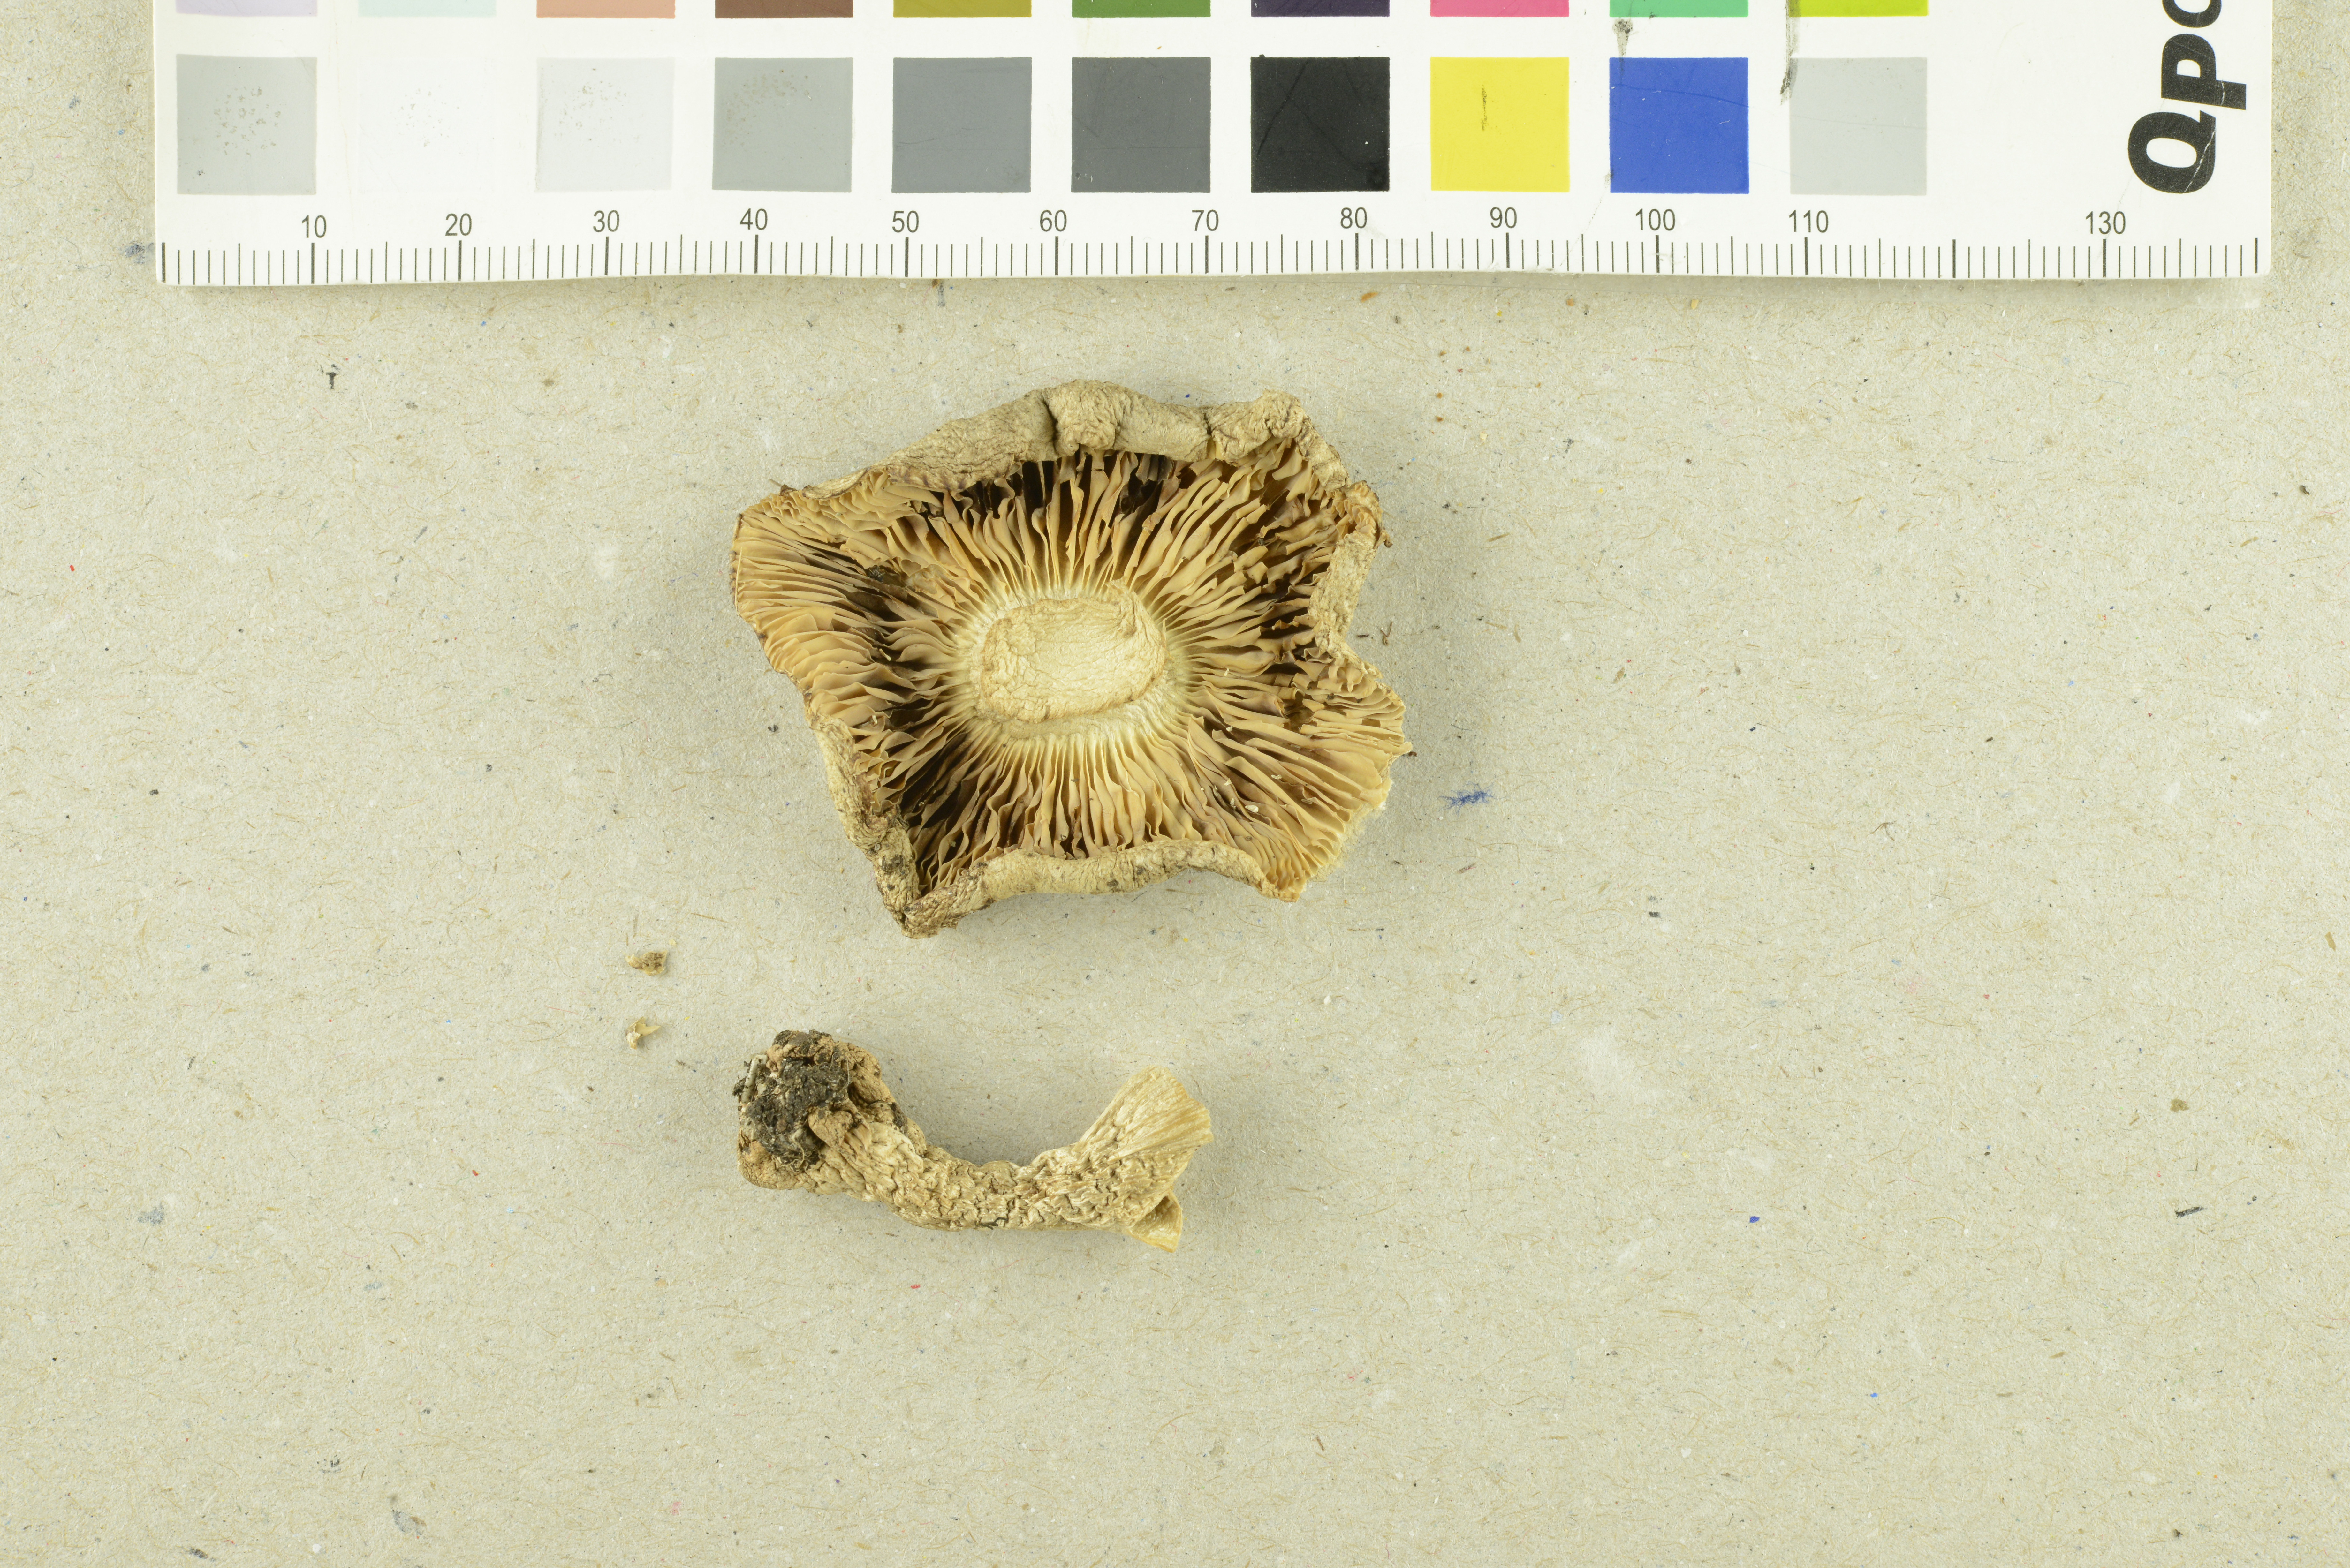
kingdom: Fungi
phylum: Basidiomycota
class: Agaricomycetes
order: Agaricales
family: Tricholomataceae
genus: Tricholoma
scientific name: Tricholoma filamentosum
